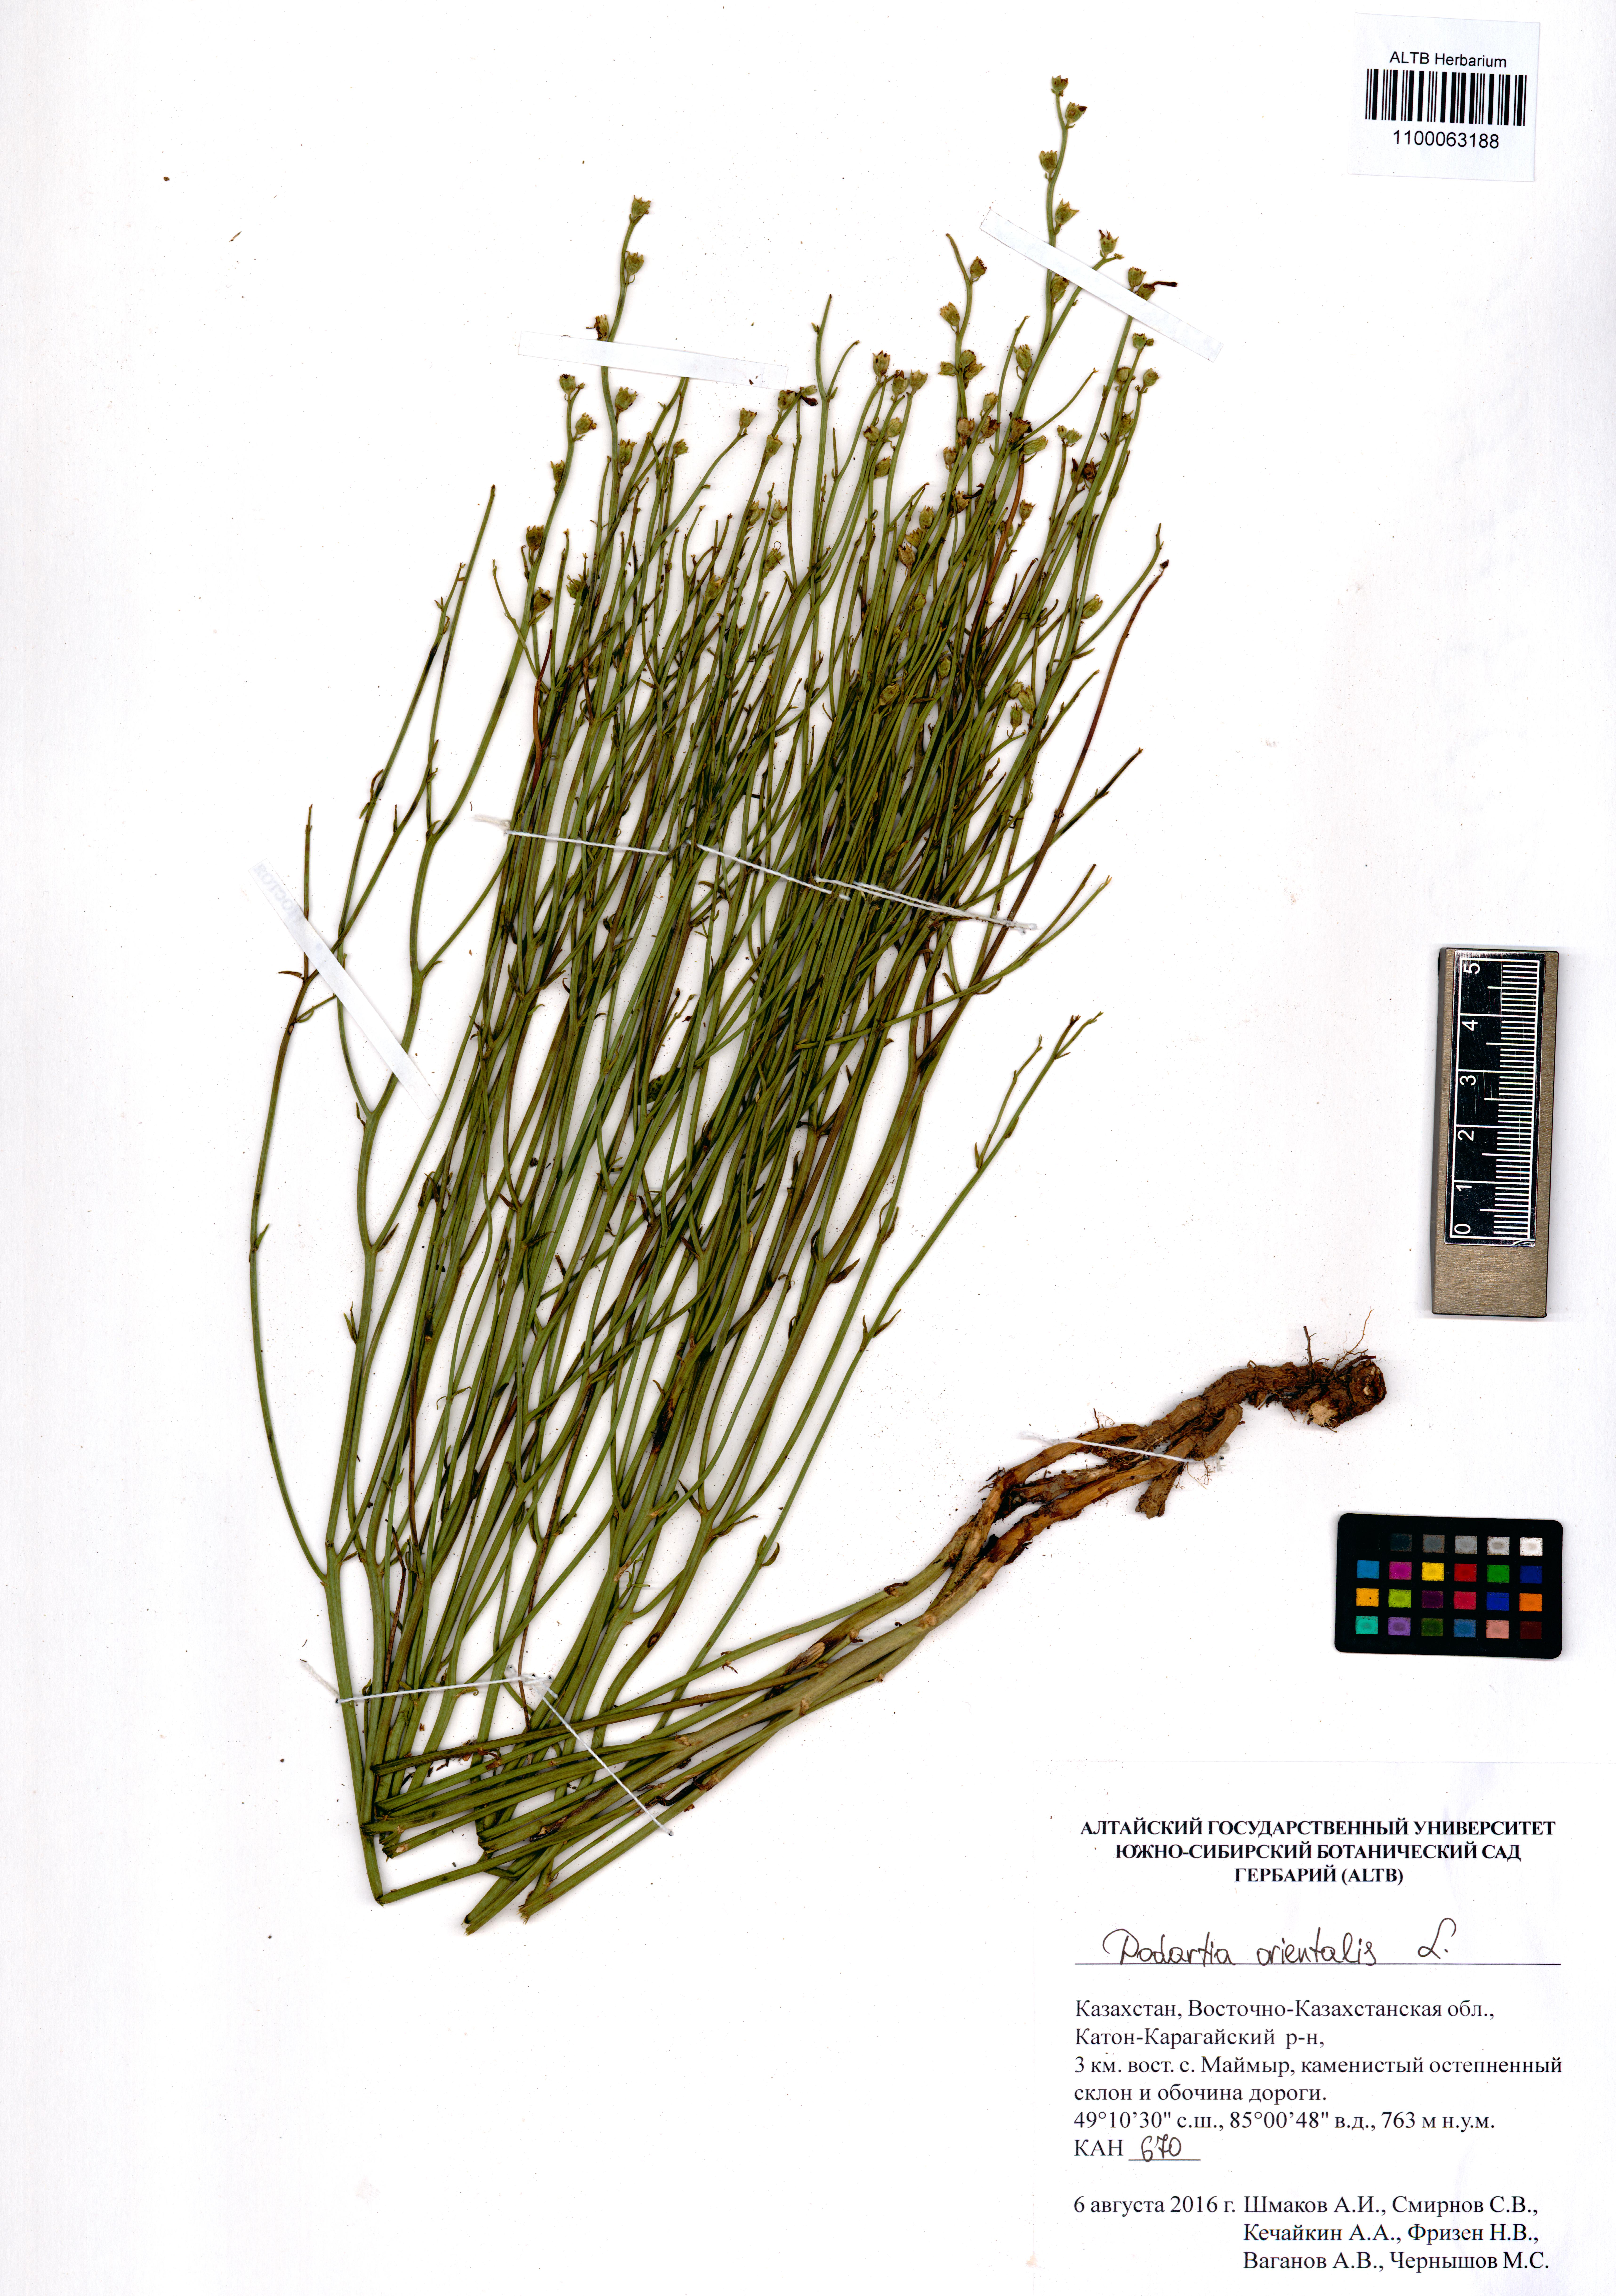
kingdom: Plantae
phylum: Tracheophyta
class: Magnoliopsida
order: Lamiales
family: Mazaceae
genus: Dodartia
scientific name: Dodartia orientalis
